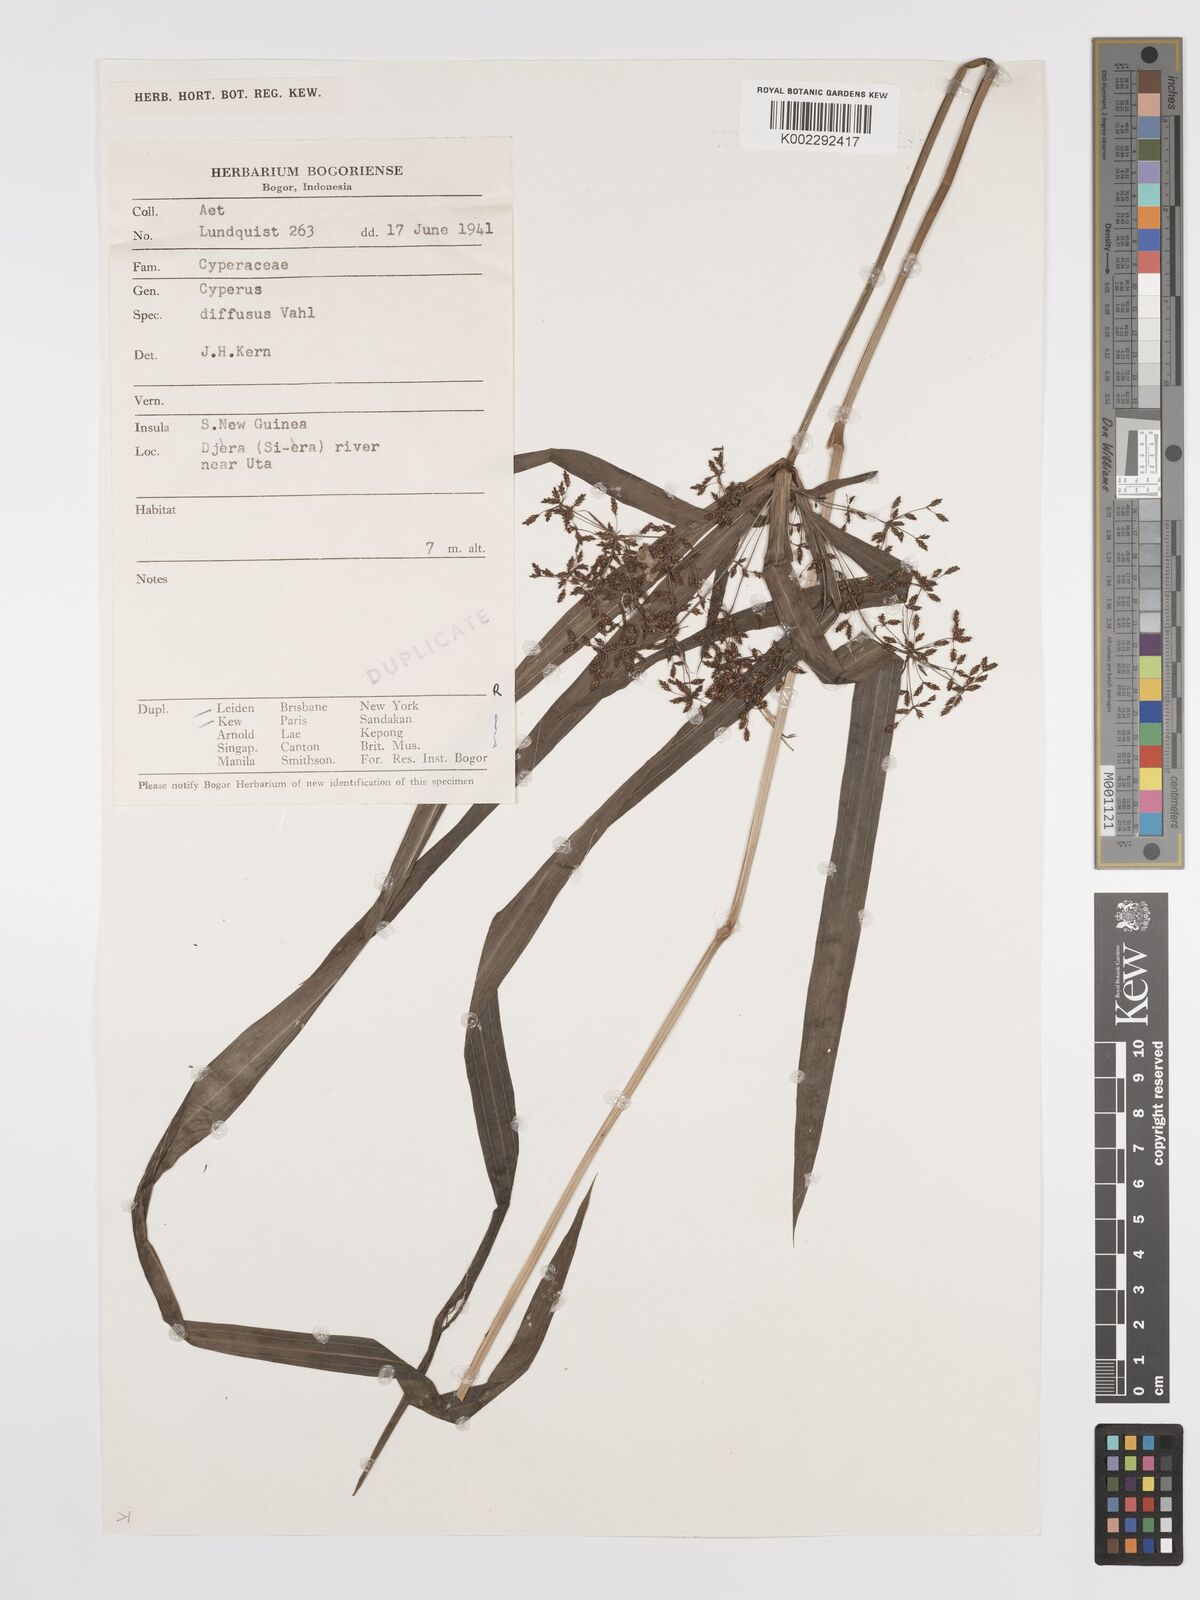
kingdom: Plantae
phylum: Tracheophyta
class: Liliopsida
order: Poales
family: Cyperaceae
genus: Cyperus
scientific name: Cyperus diffusus
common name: Dwarf umbrella grass
